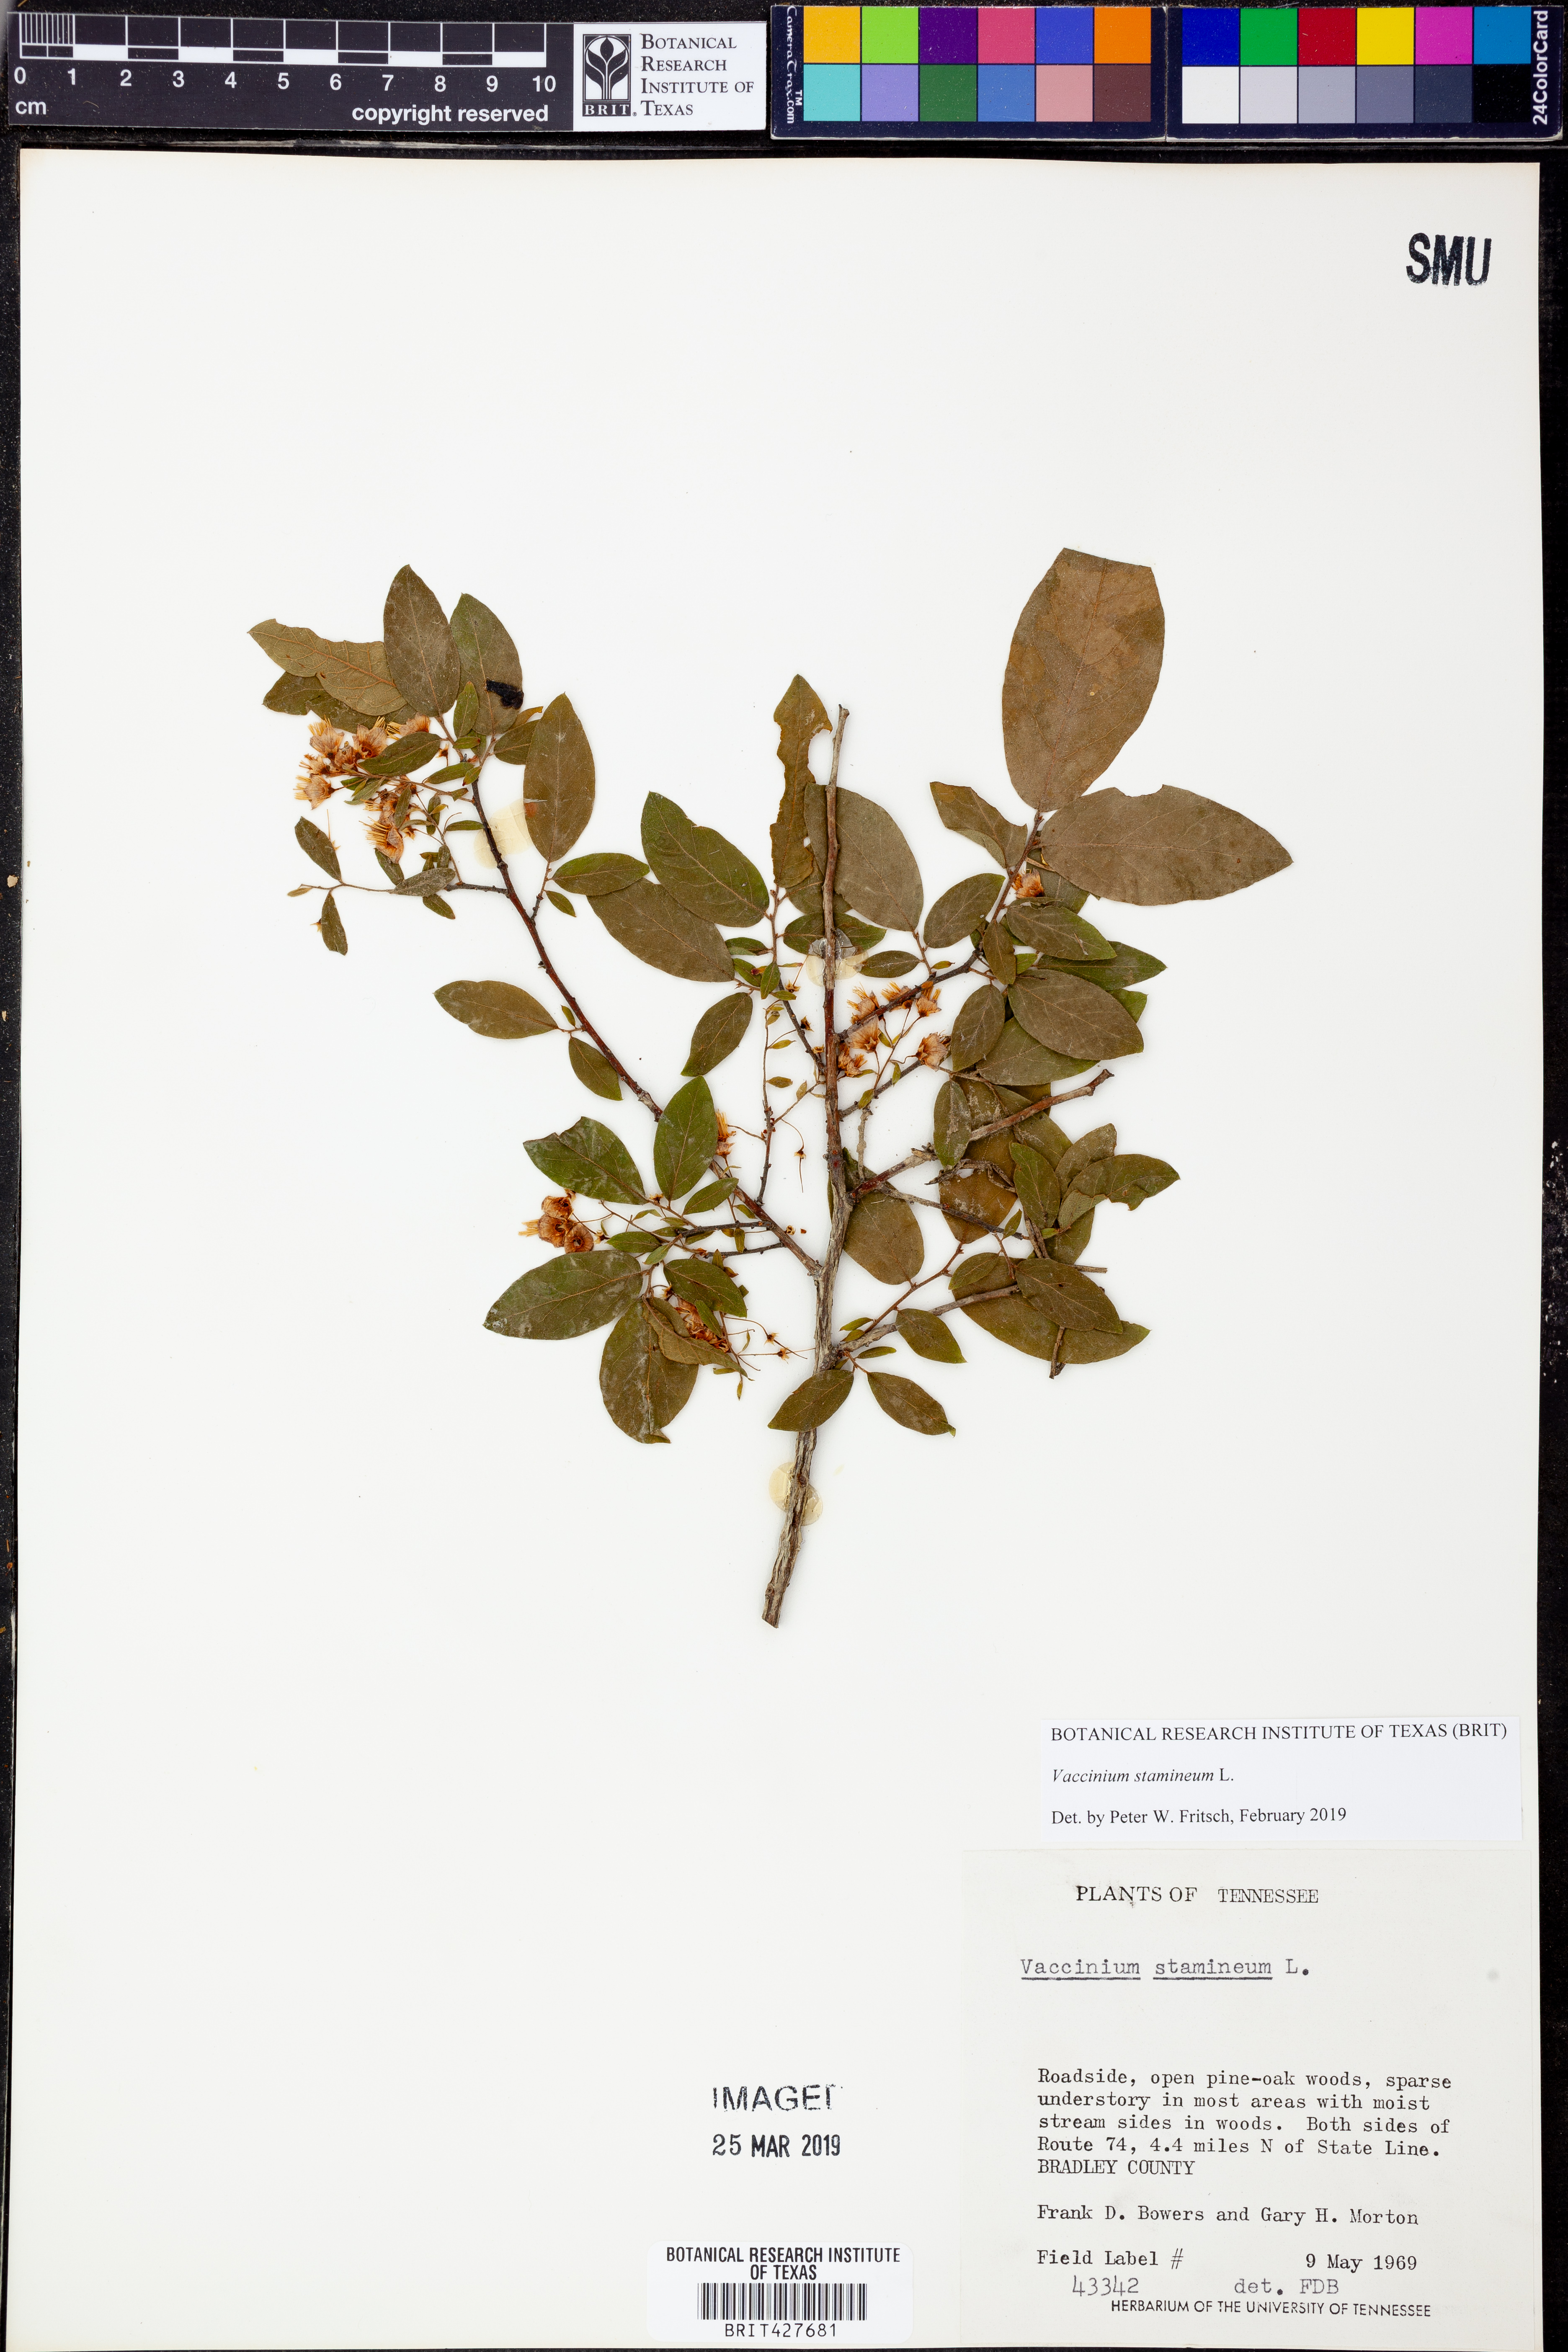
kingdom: Plantae
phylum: Tracheophyta
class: Magnoliopsida
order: Ericales
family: Ericaceae
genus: Vaccinium
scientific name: Vaccinium stamineum
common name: Deerberry
